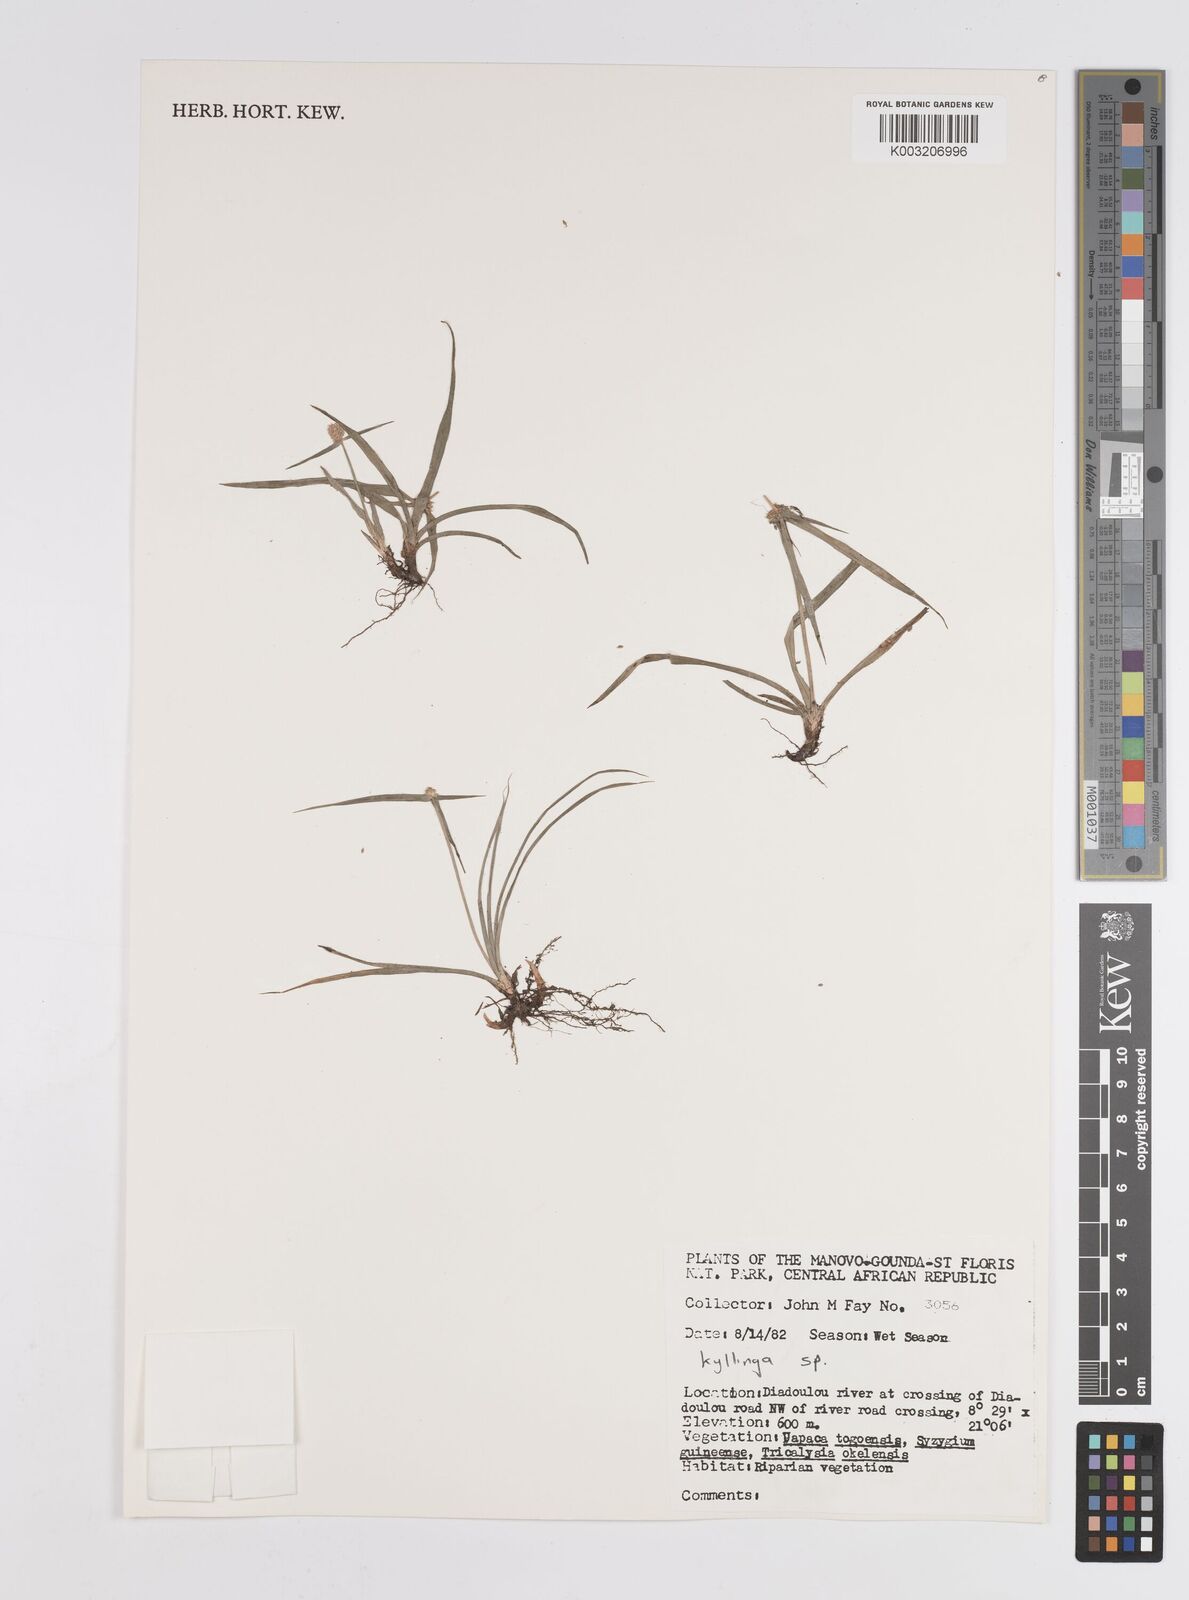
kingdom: Plantae
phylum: Tracheophyta
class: Liliopsida
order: Poales
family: Cyperaceae
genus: Cyperus
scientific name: Cyperus
